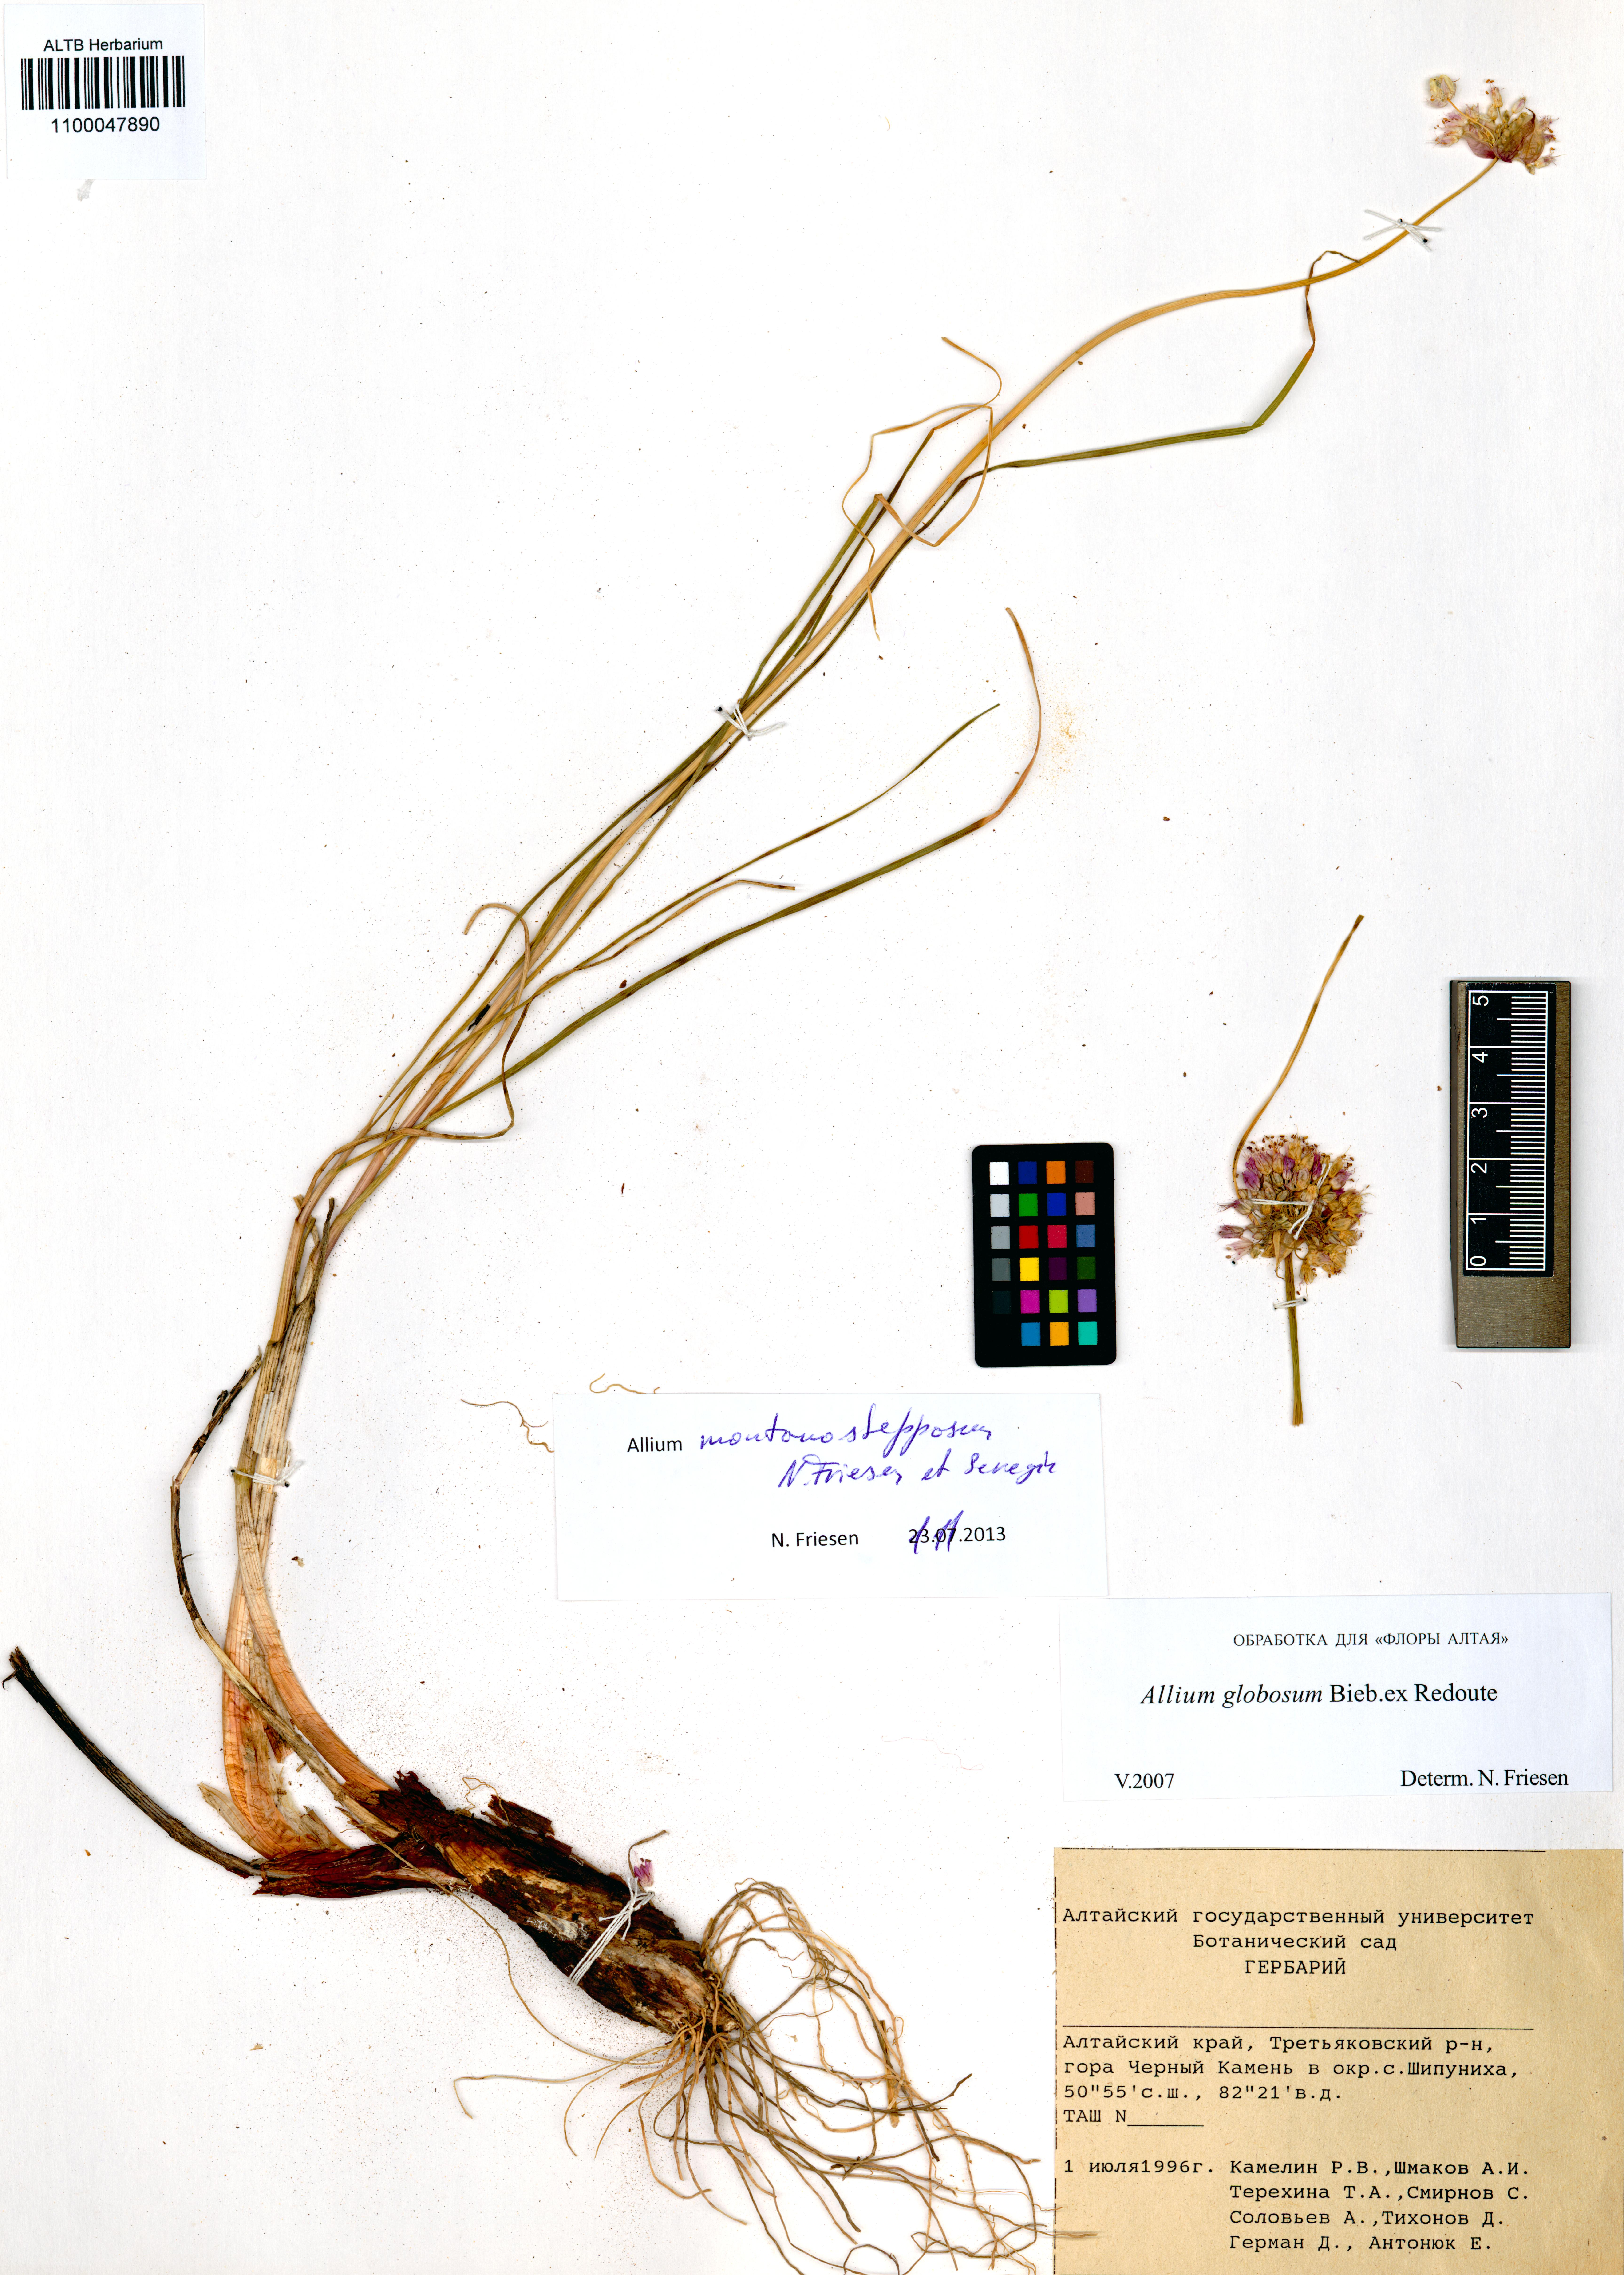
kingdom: Plantae
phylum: Tracheophyta
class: Liliopsida
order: Asparagales
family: Amaryllidaceae
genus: Allium
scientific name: Allium montanostepposum
